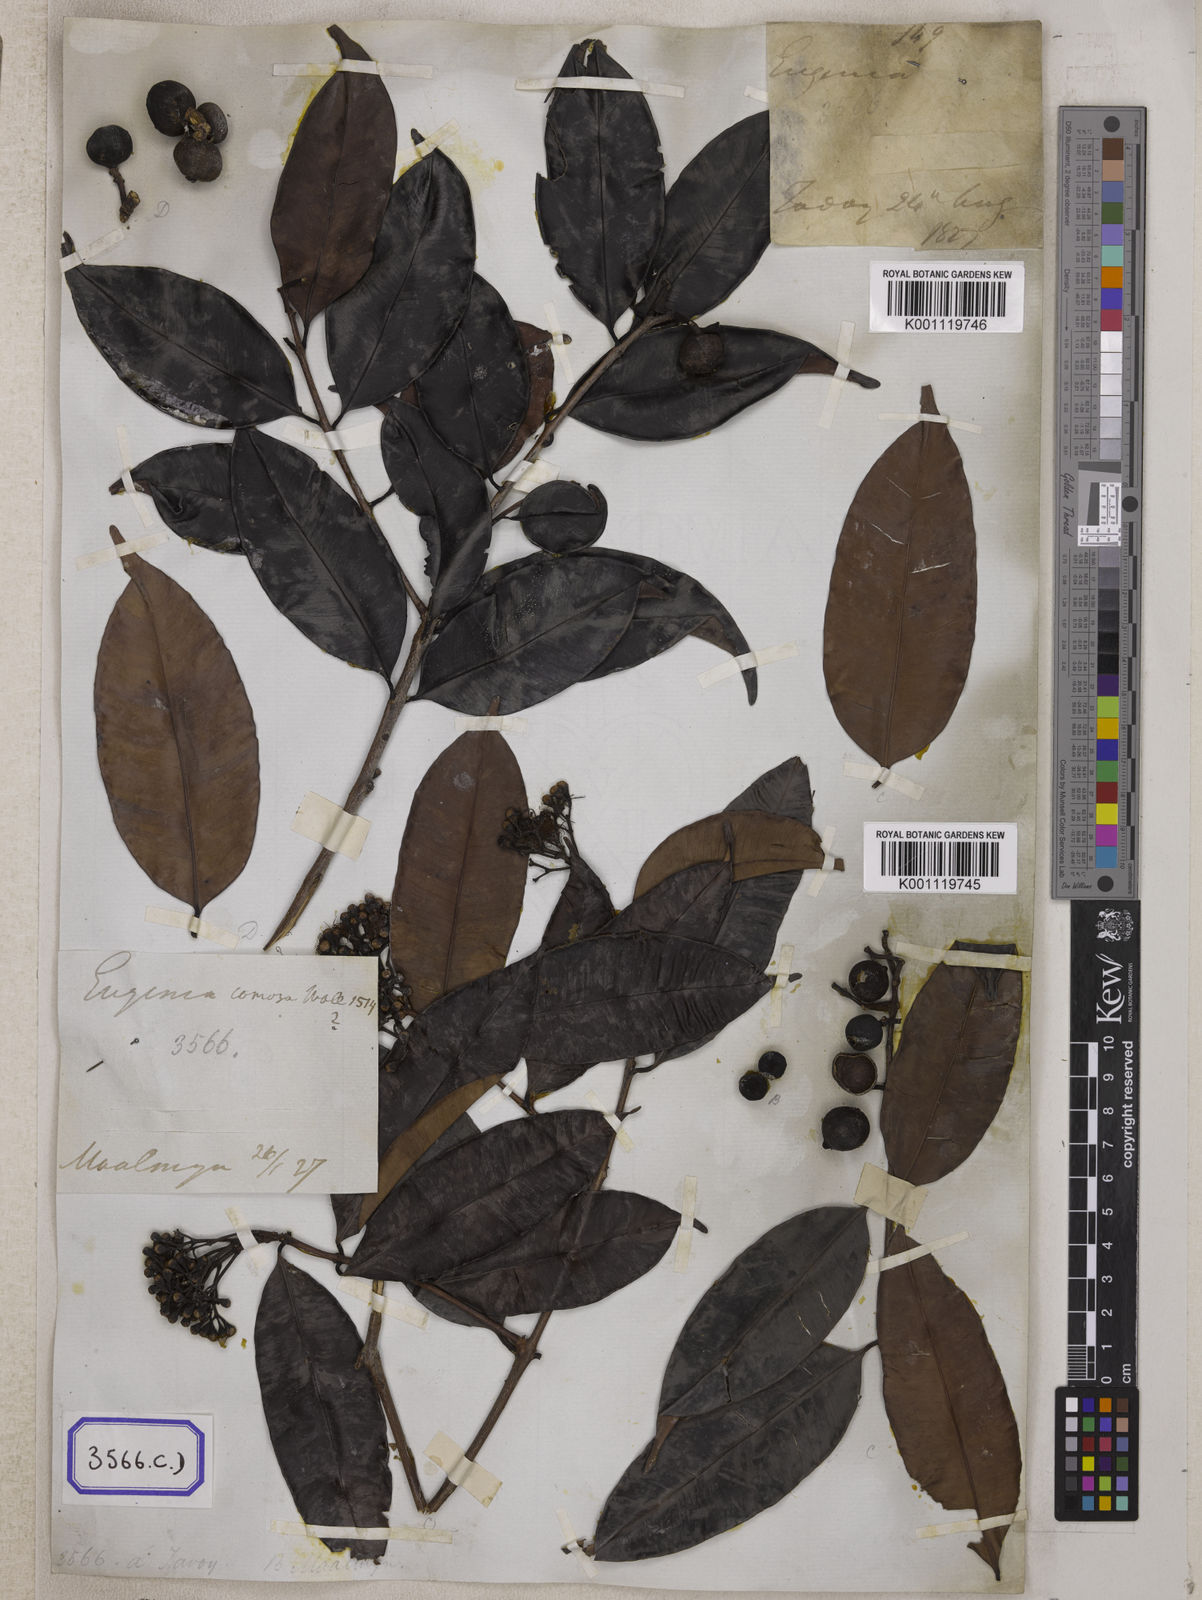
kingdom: Plantae
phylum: Tracheophyta
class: Magnoliopsida
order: Myrtales
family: Myrtaceae
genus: Syzygium
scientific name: Syzygium
